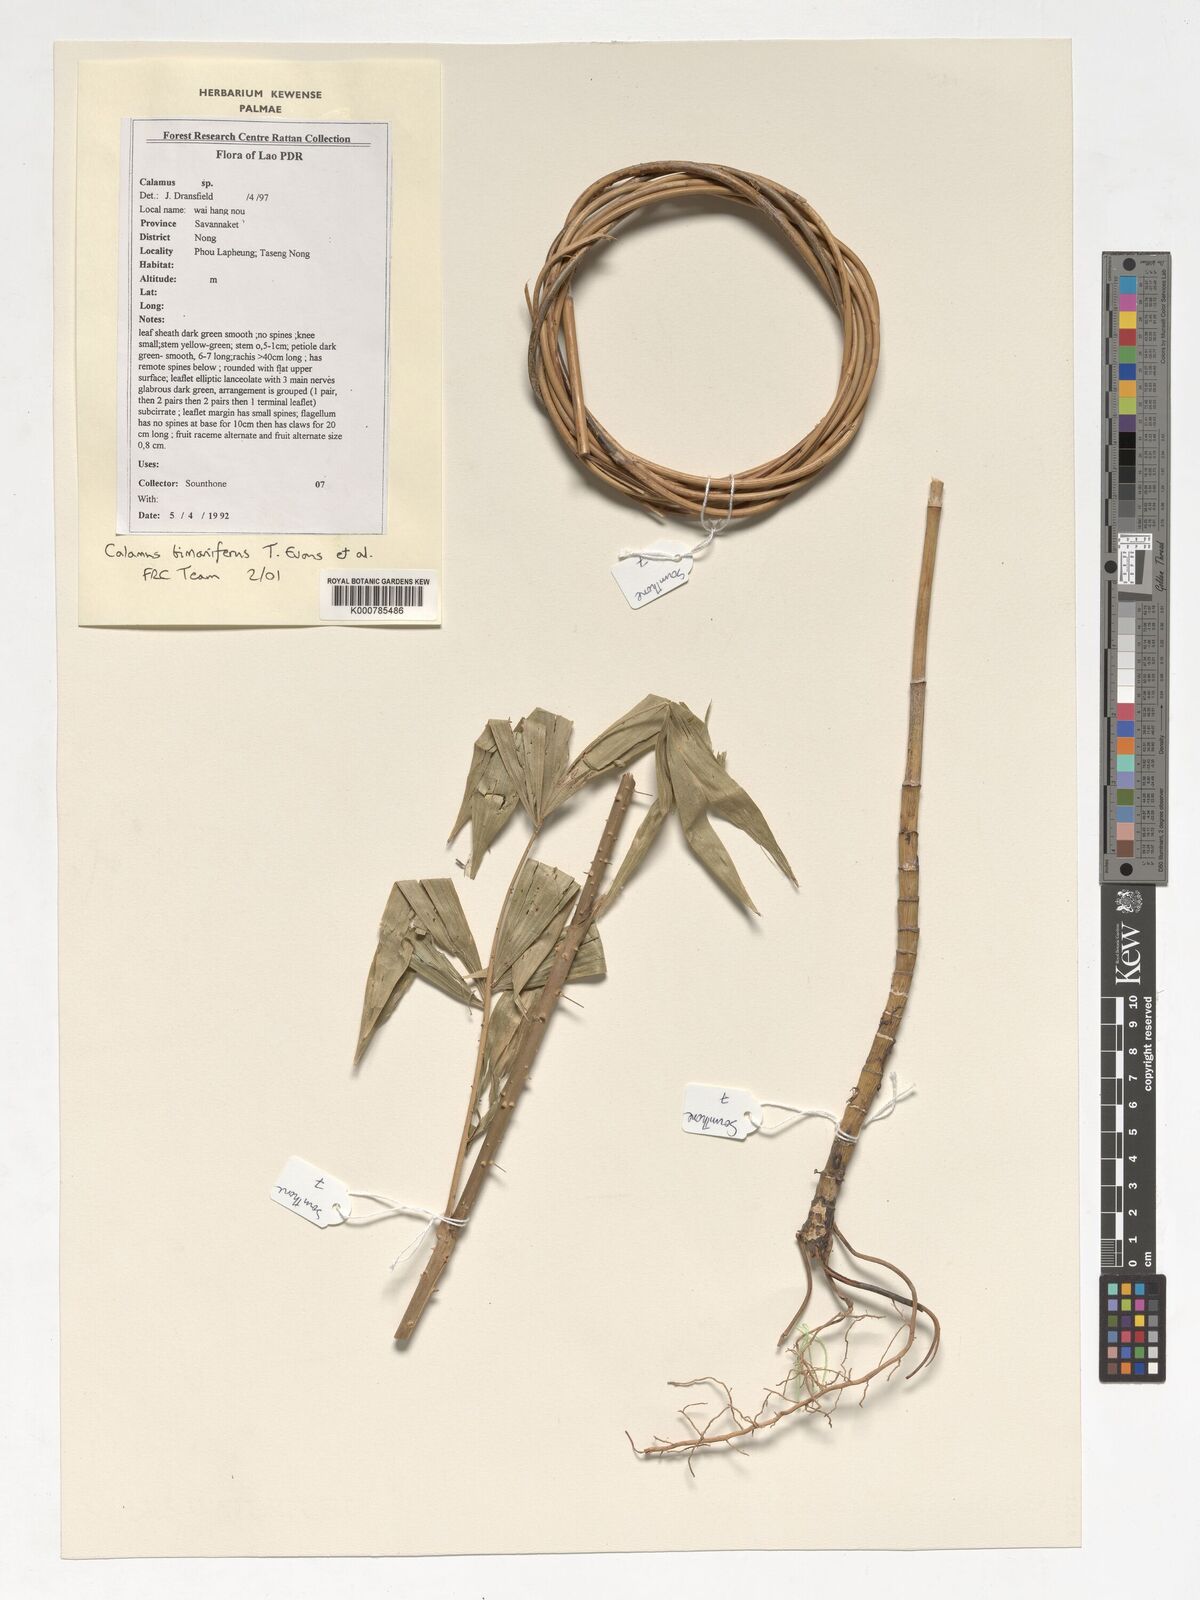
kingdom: Plantae
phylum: Tracheophyta
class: Liliopsida
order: Arecales
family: Arecaceae
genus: Calamus
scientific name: Calamus bimanifer
